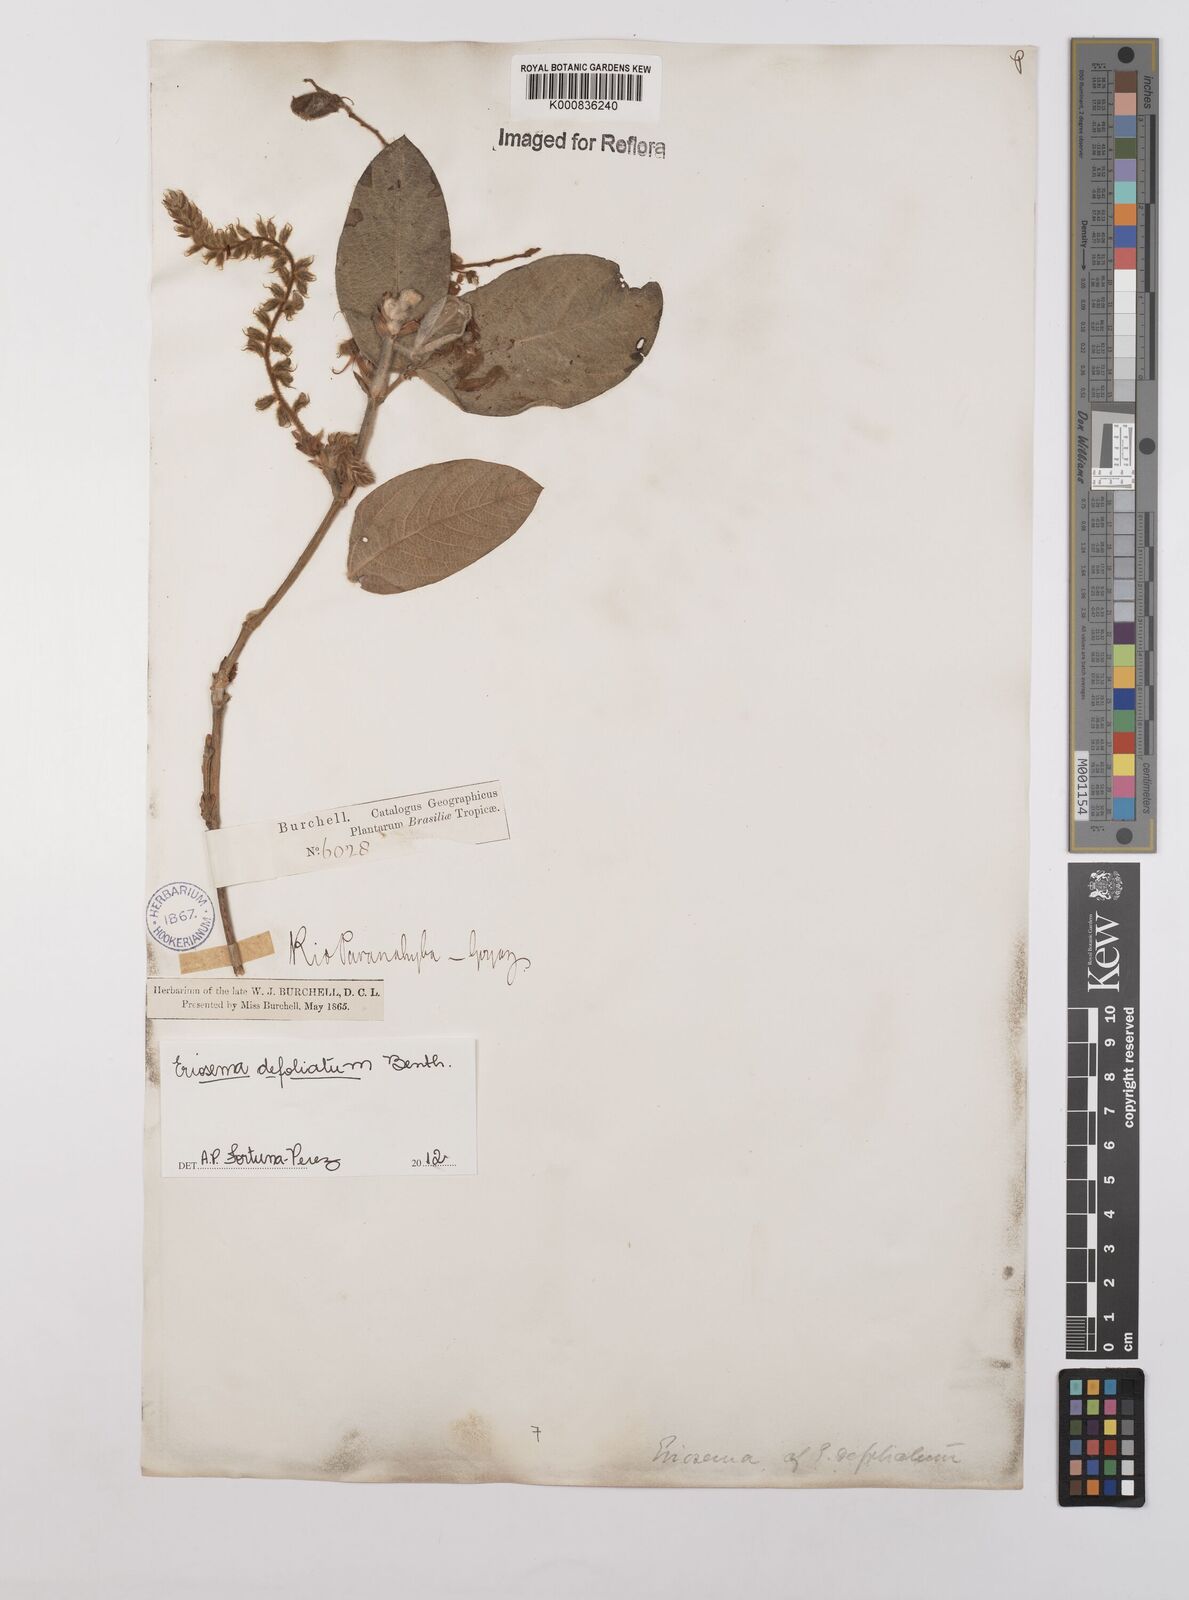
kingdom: Plantae
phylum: Tracheophyta
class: Magnoliopsida
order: Fabales
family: Fabaceae
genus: Eriosema
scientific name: Eriosema defoliatum
